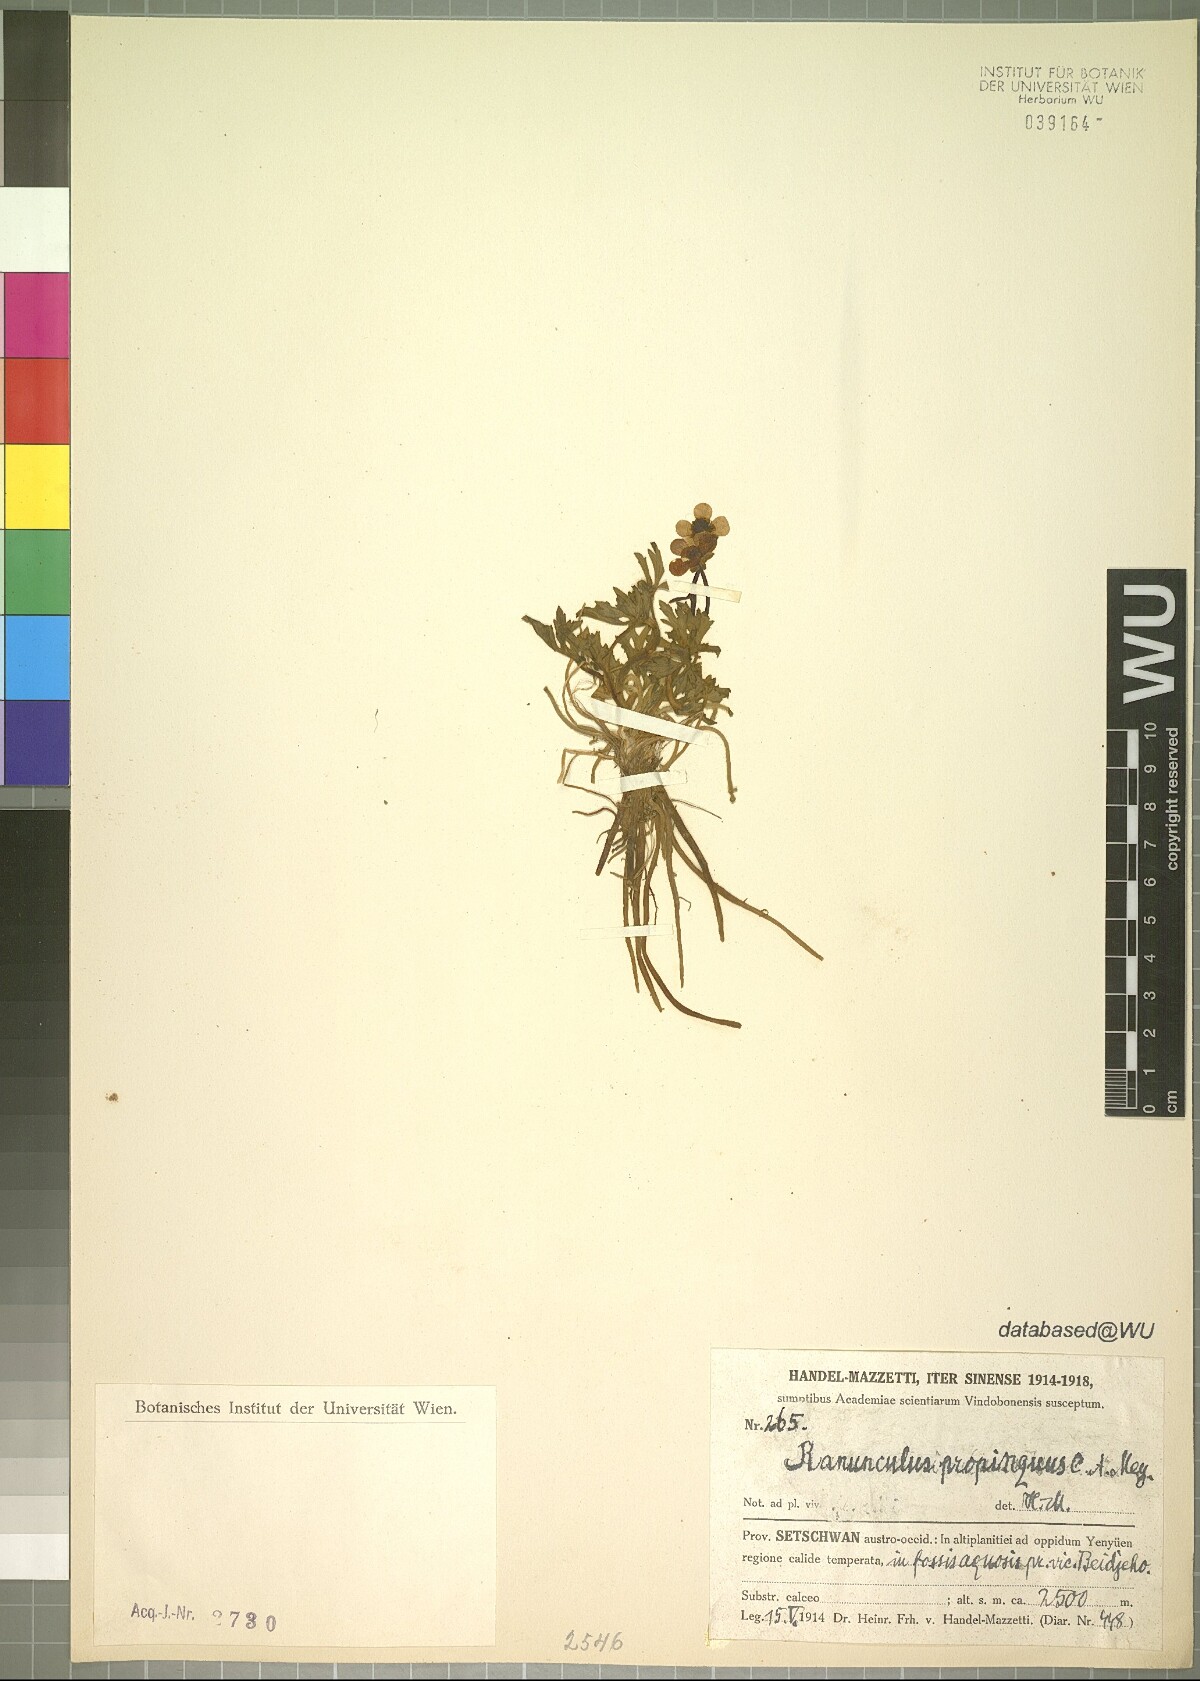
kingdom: Plantae
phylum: Tracheophyta
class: Magnoliopsida
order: Ranunculales
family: Ranunculaceae
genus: Ranunculus
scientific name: Ranunculus propinquus
